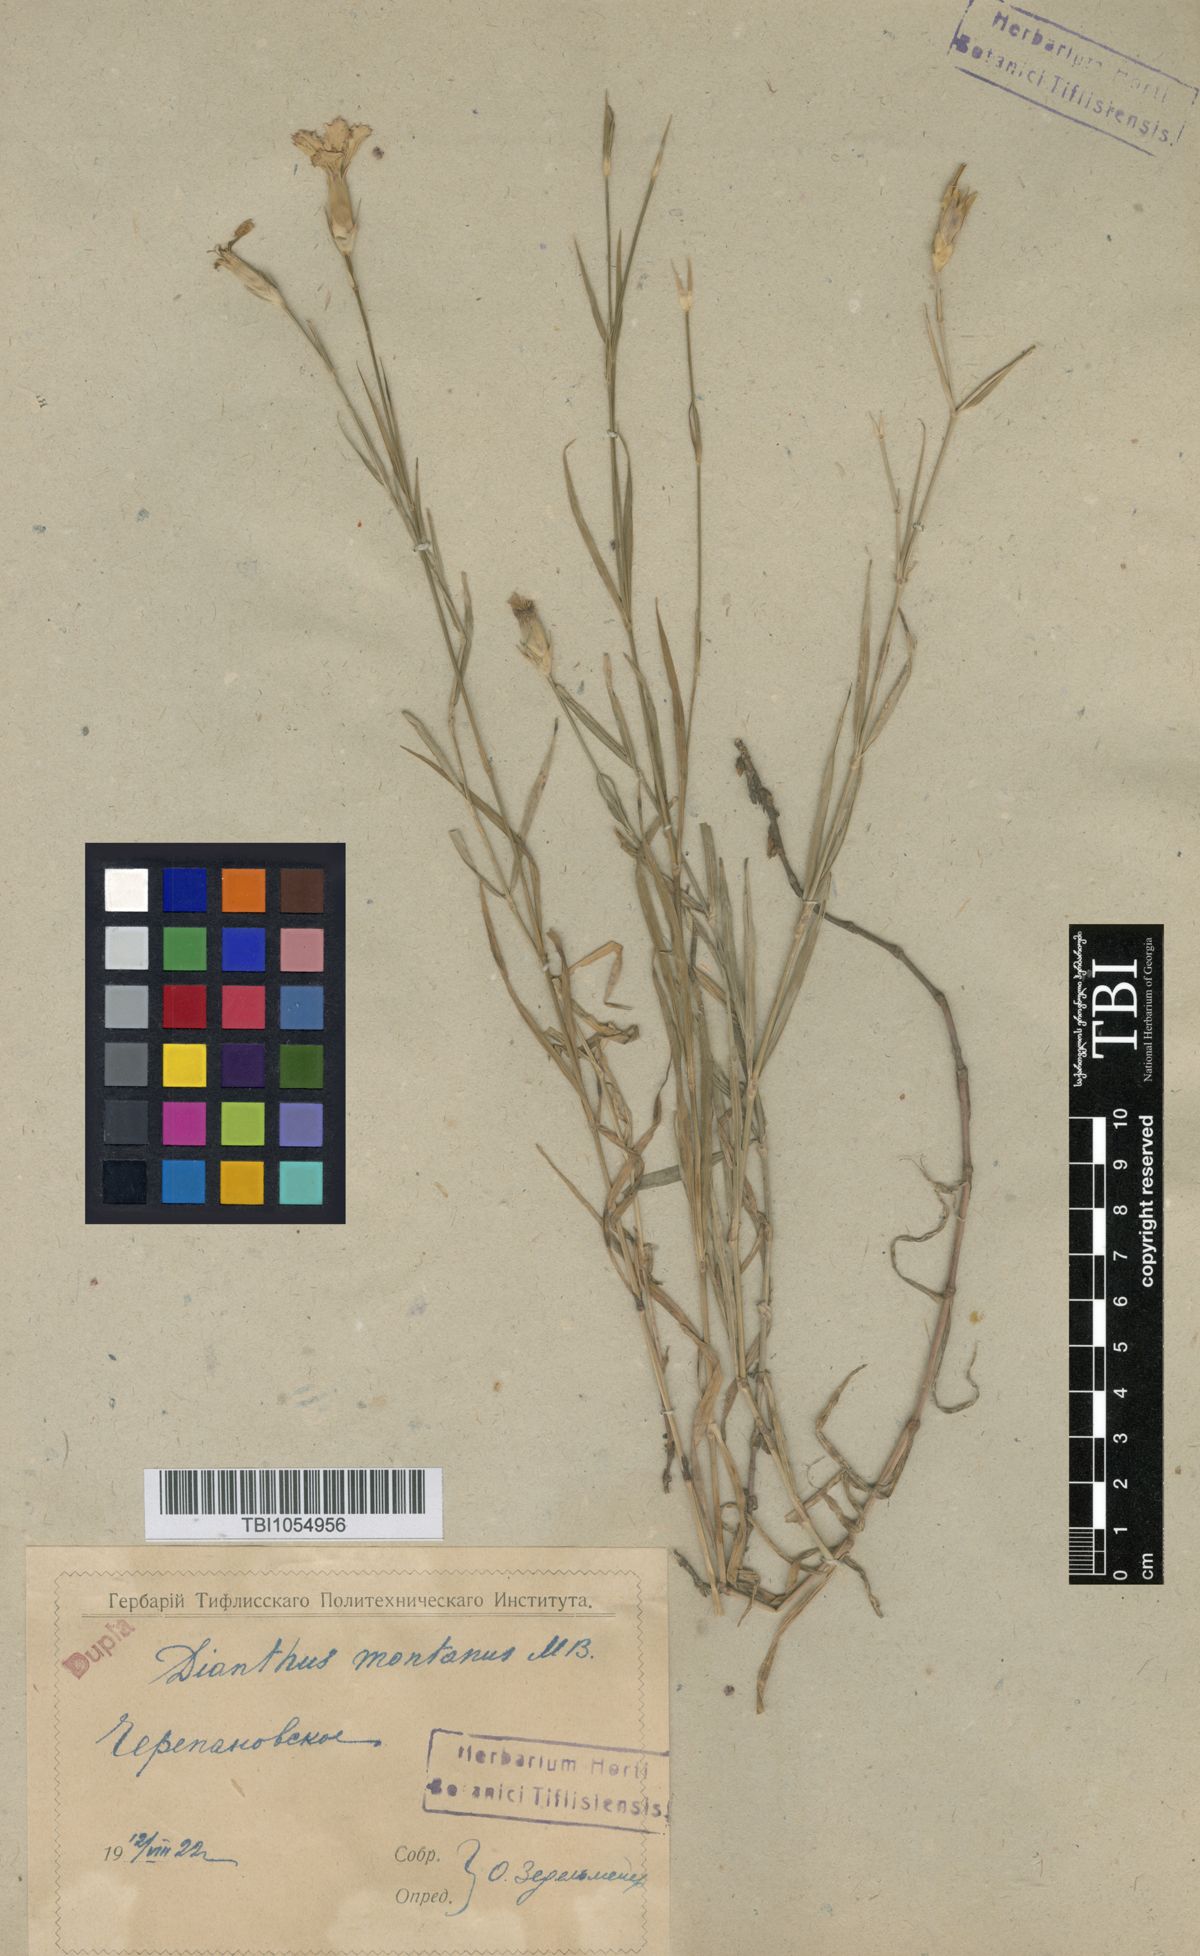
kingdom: Plantae
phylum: Tracheophyta
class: Magnoliopsida
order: Caryophyllales
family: Caryophyllaceae
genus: Dianthus
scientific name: Dianthus caucaseus
